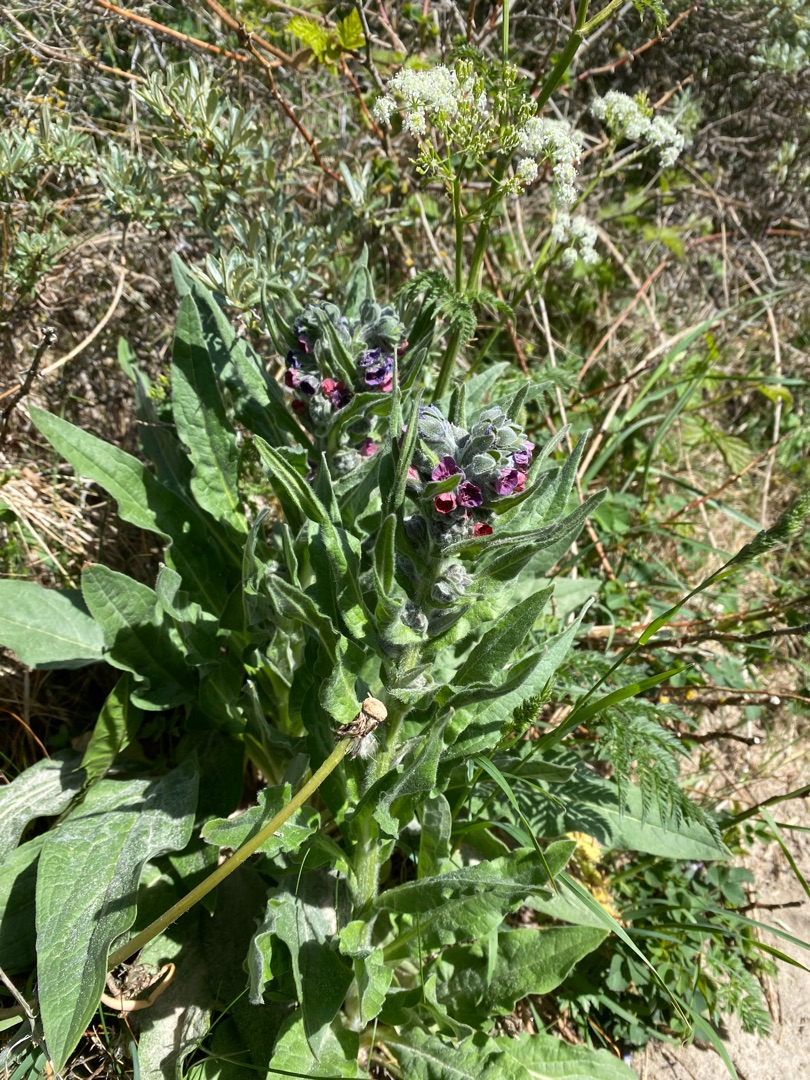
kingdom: Plantae
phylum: Tracheophyta
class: Magnoliopsida
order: Boraginales
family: Boraginaceae
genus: Cynoglossum
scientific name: Cynoglossum officinale
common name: Hundetunge
